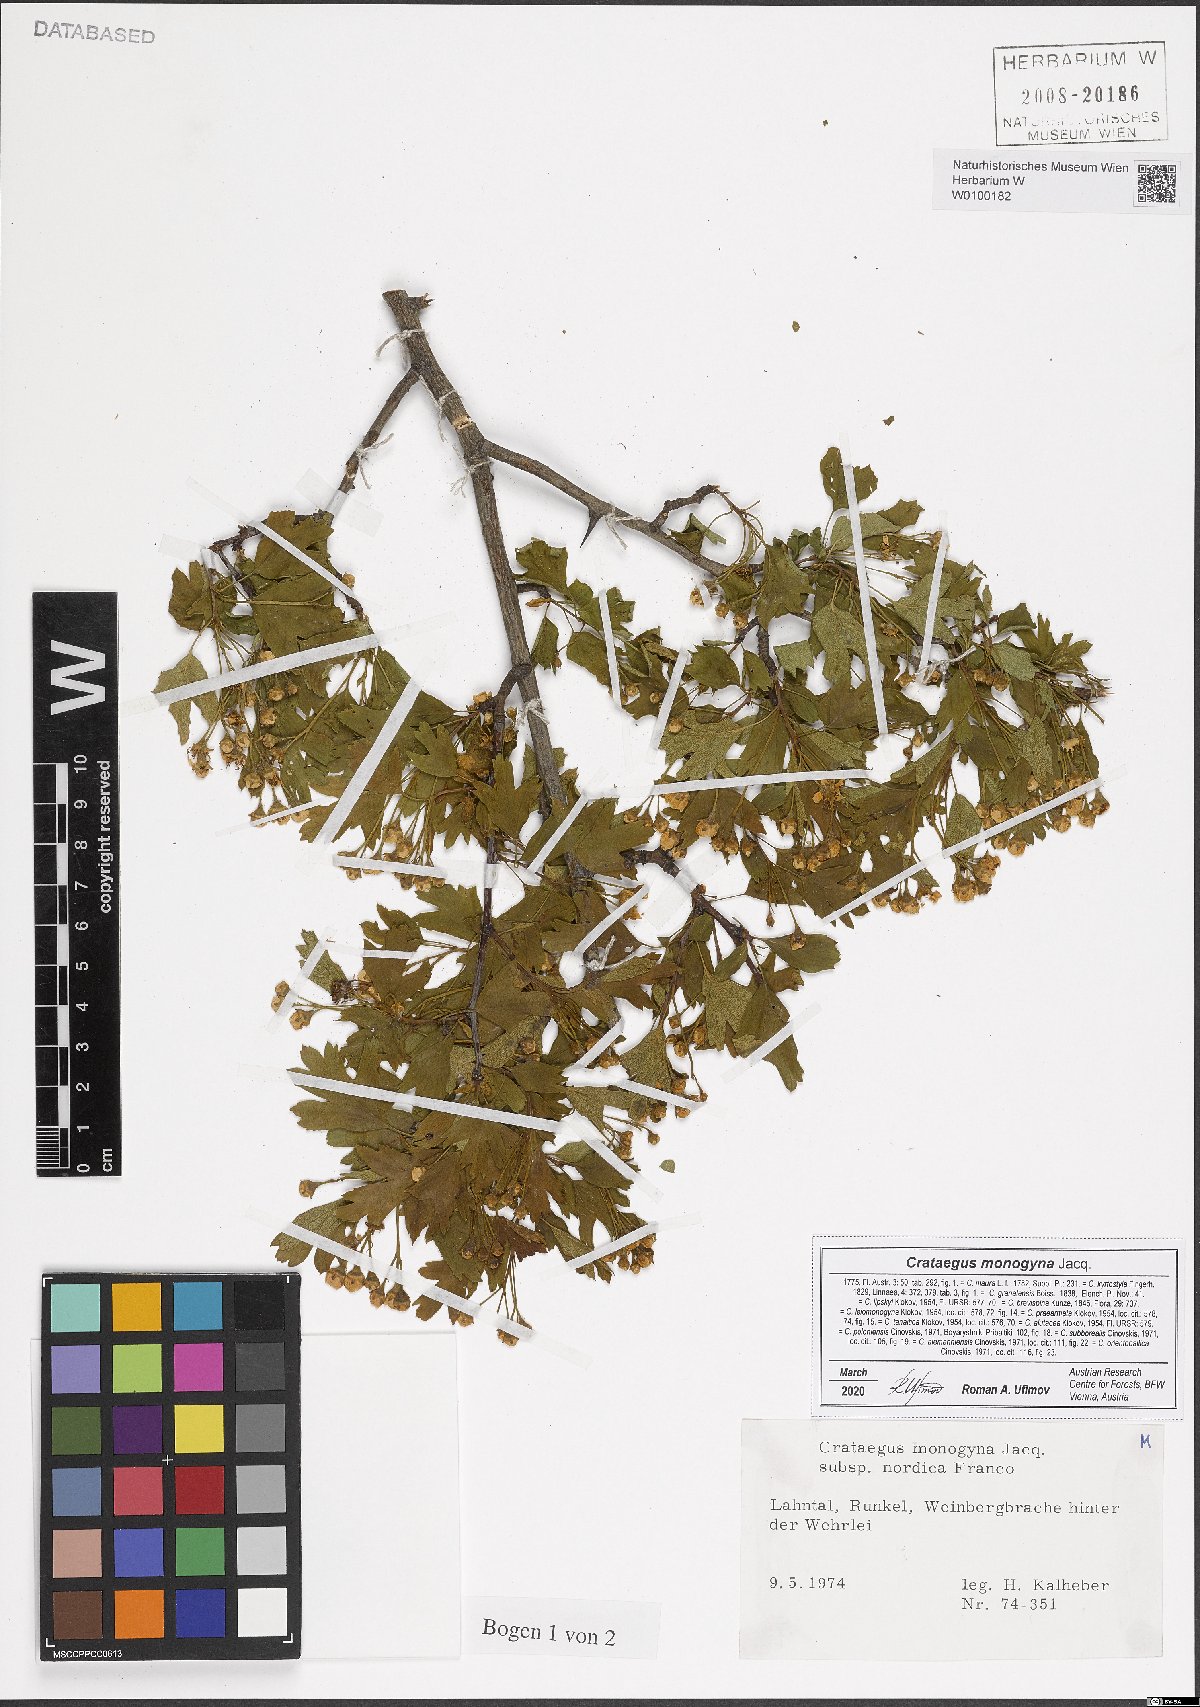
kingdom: Plantae
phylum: Tracheophyta
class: Magnoliopsida
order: Rosales
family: Rosaceae
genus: Crataegus
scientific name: Crataegus monogyna
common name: Hawthorn
